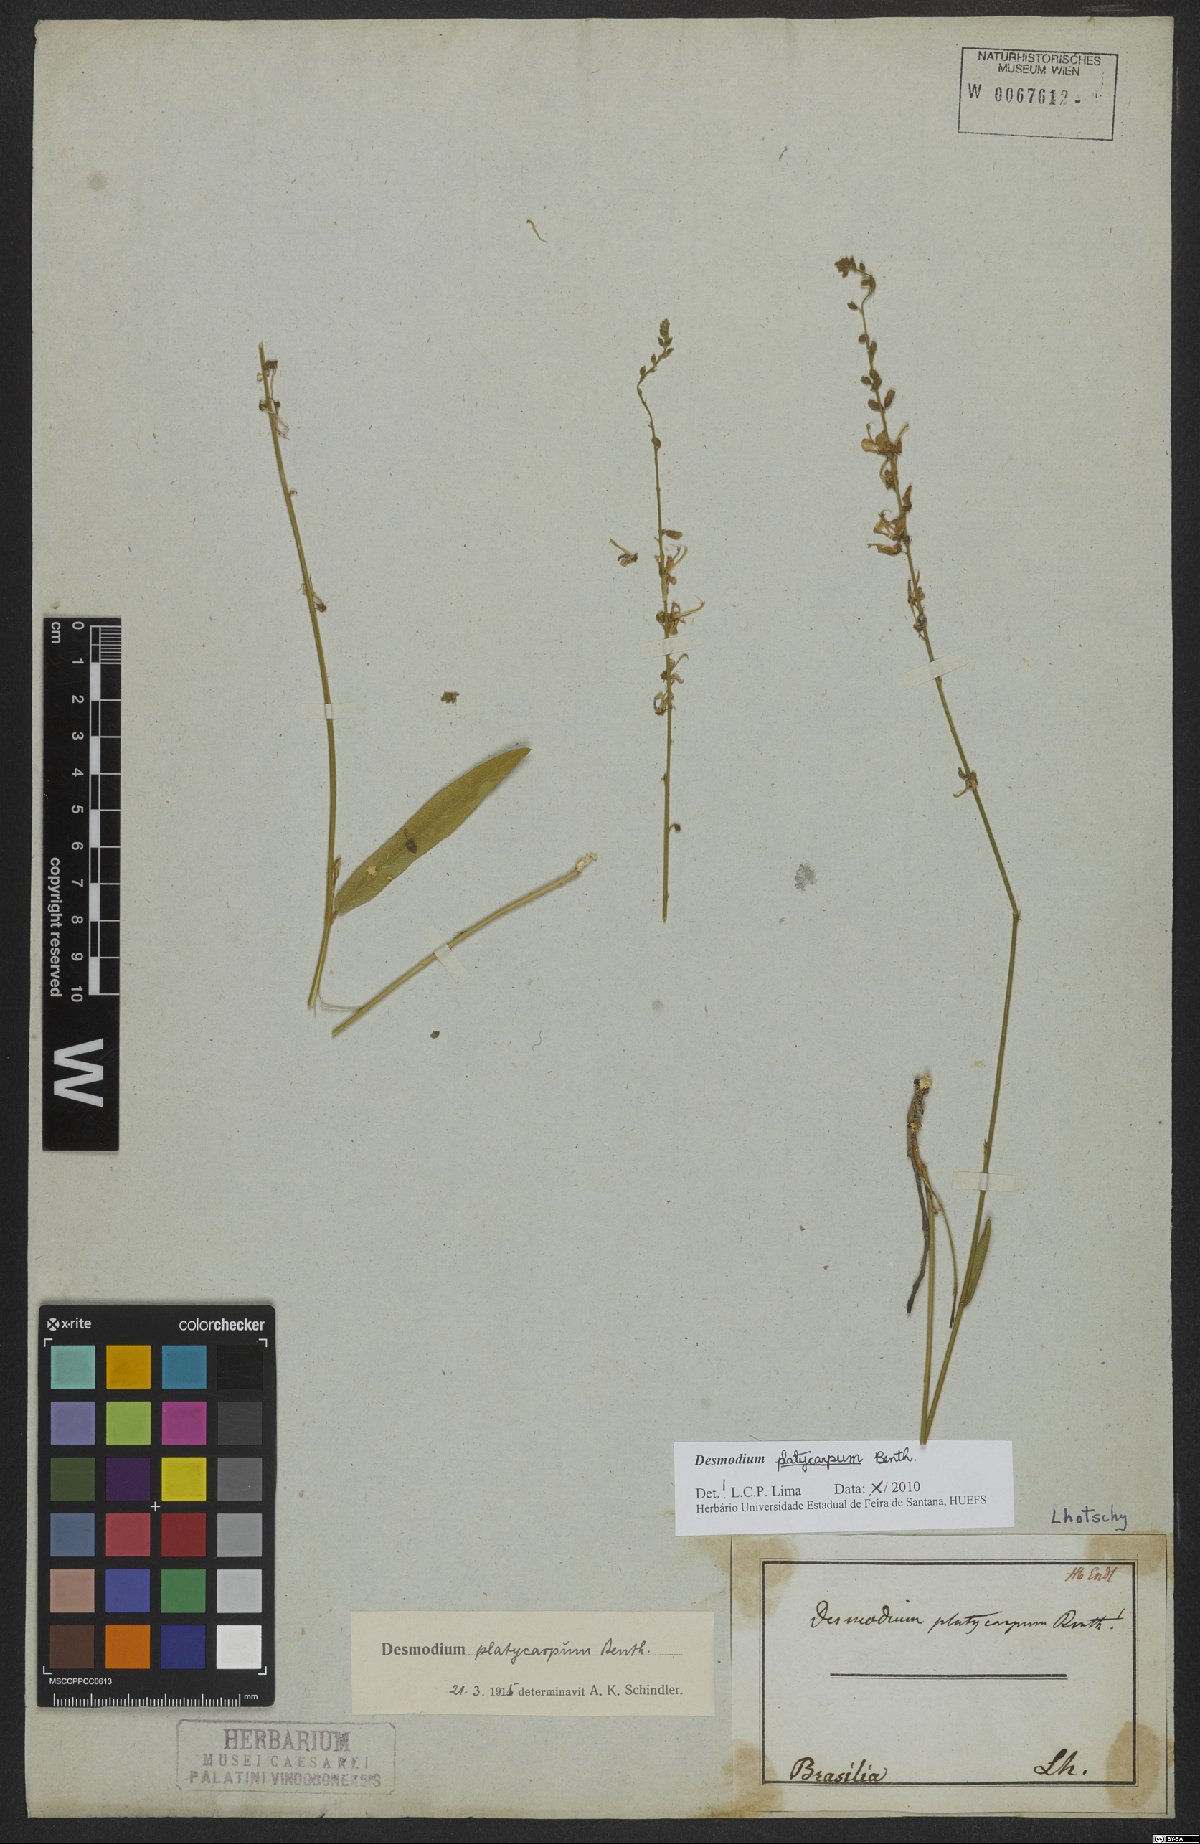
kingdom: Plantae
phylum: Tracheophyta
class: Magnoliopsida
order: Fabales
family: Fabaceae
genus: Desmodium
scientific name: Desmodium platycarpum
